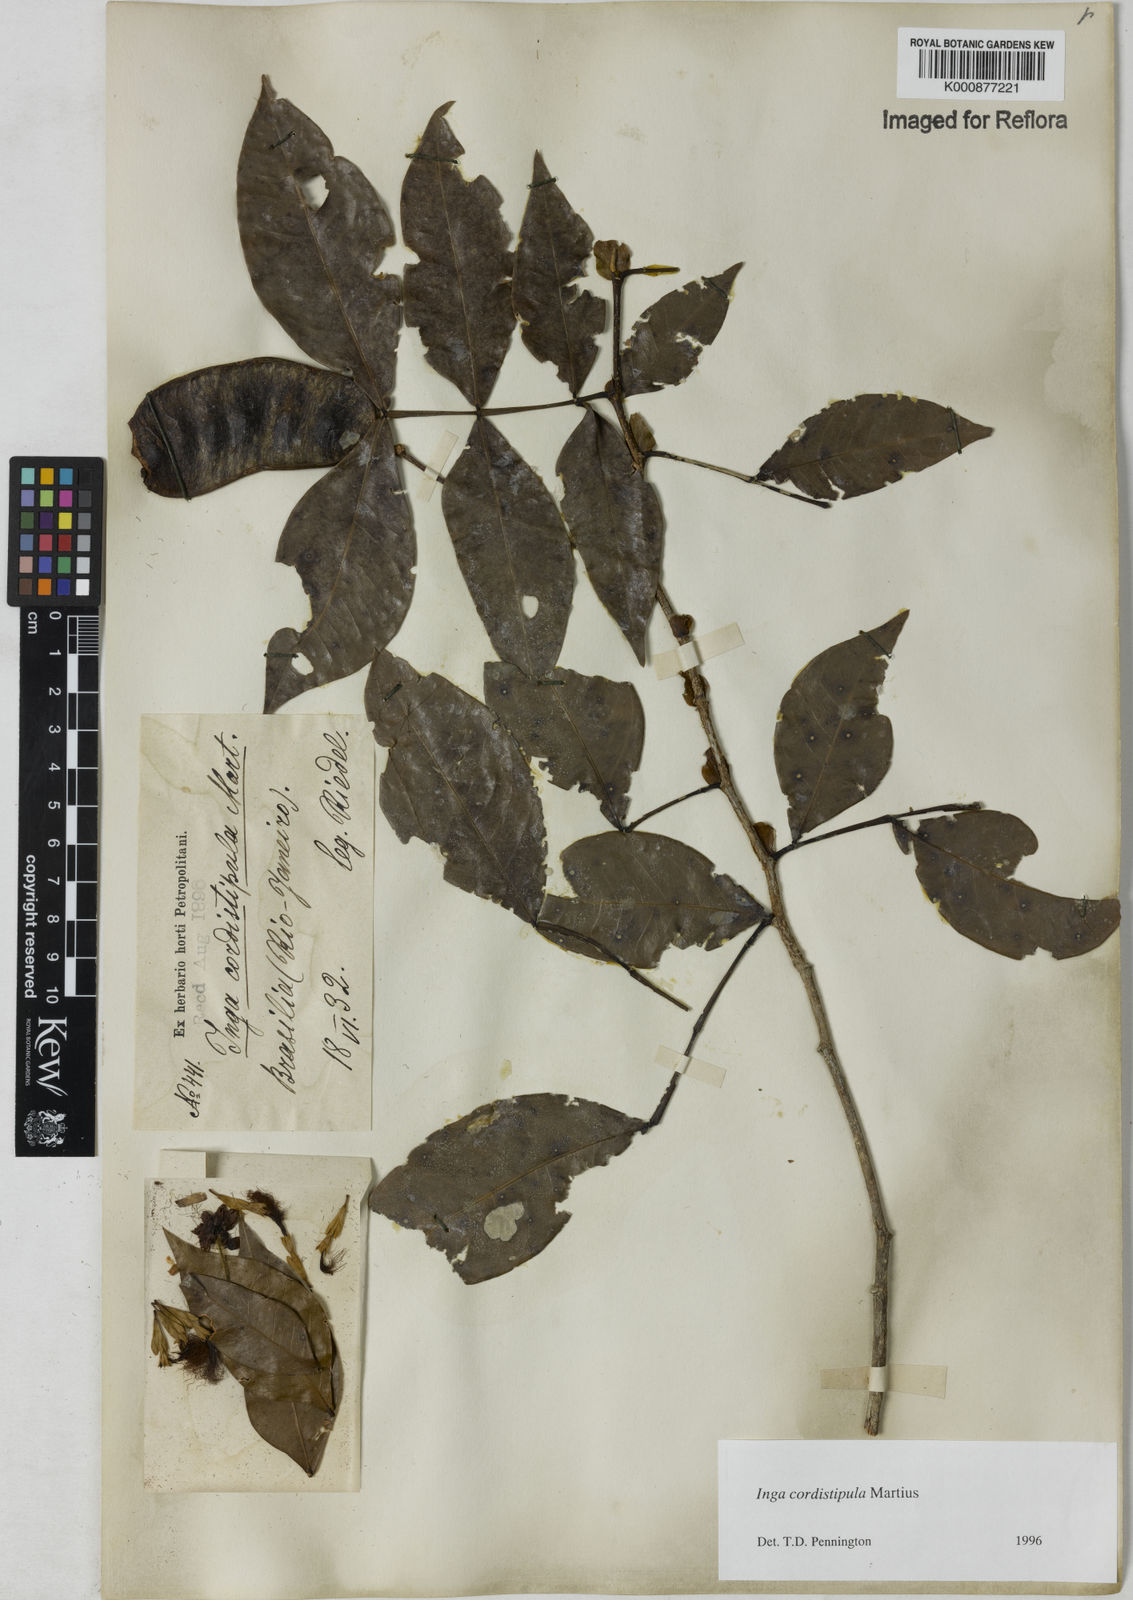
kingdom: Plantae
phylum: Tracheophyta
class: Magnoliopsida
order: Fabales
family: Fabaceae
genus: Inga
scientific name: Inga cordistipula
